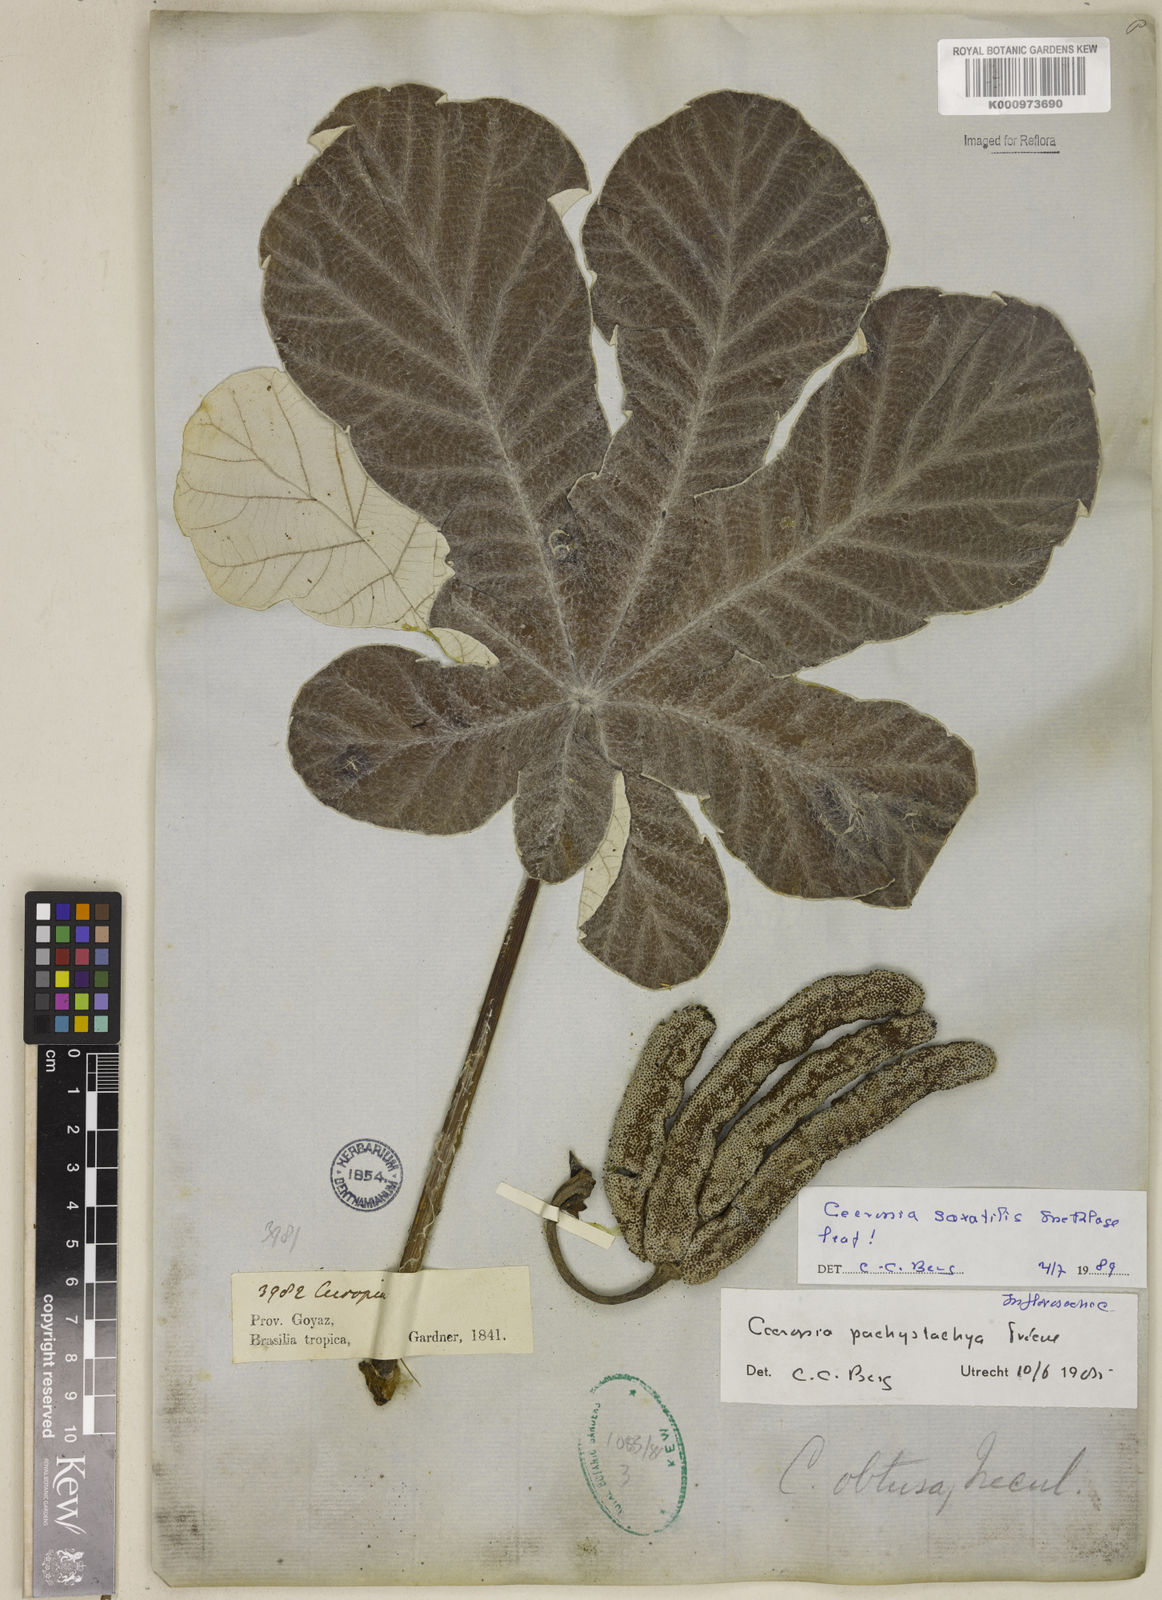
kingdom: Plantae
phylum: Tracheophyta
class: Magnoliopsida
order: Rosales
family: Urticaceae
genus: Cecropia
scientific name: Cecropia saxatilis
